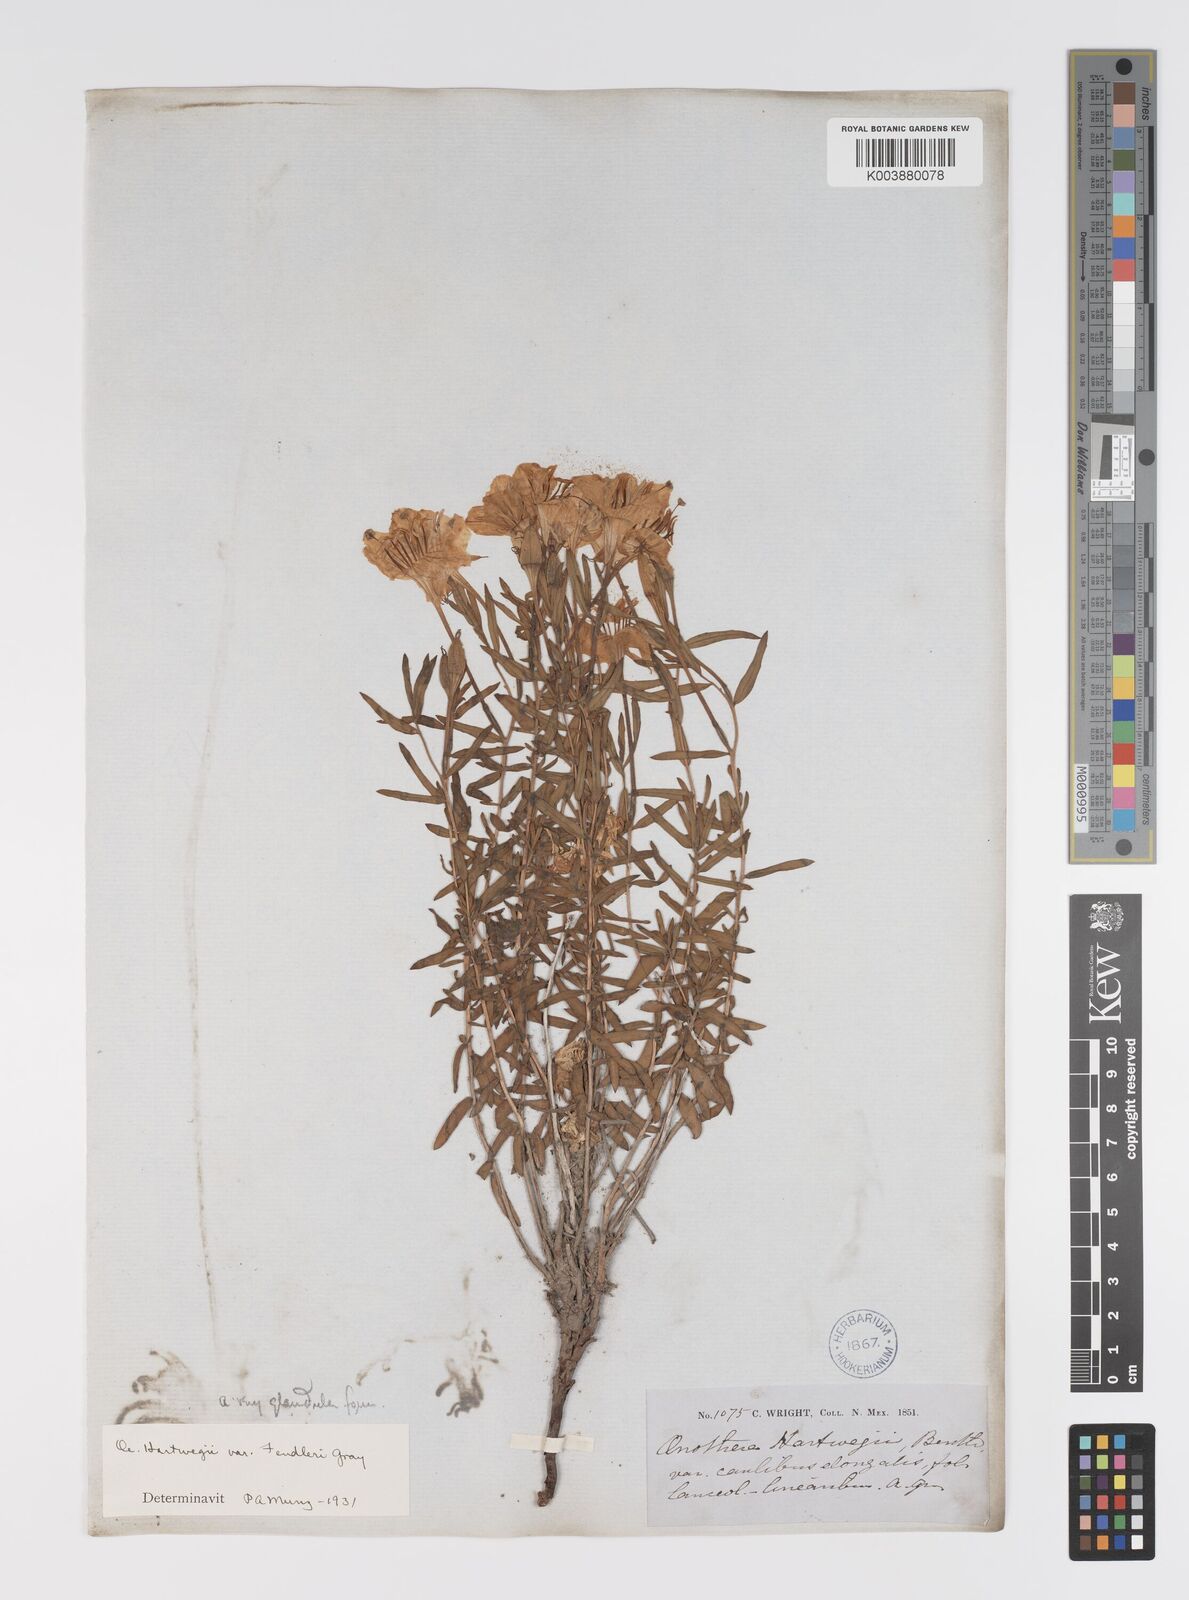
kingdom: Plantae
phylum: Tracheophyta
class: Magnoliopsida
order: Myrtales
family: Onagraceae
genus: Oenothera
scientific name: Oenothera hartwegii
